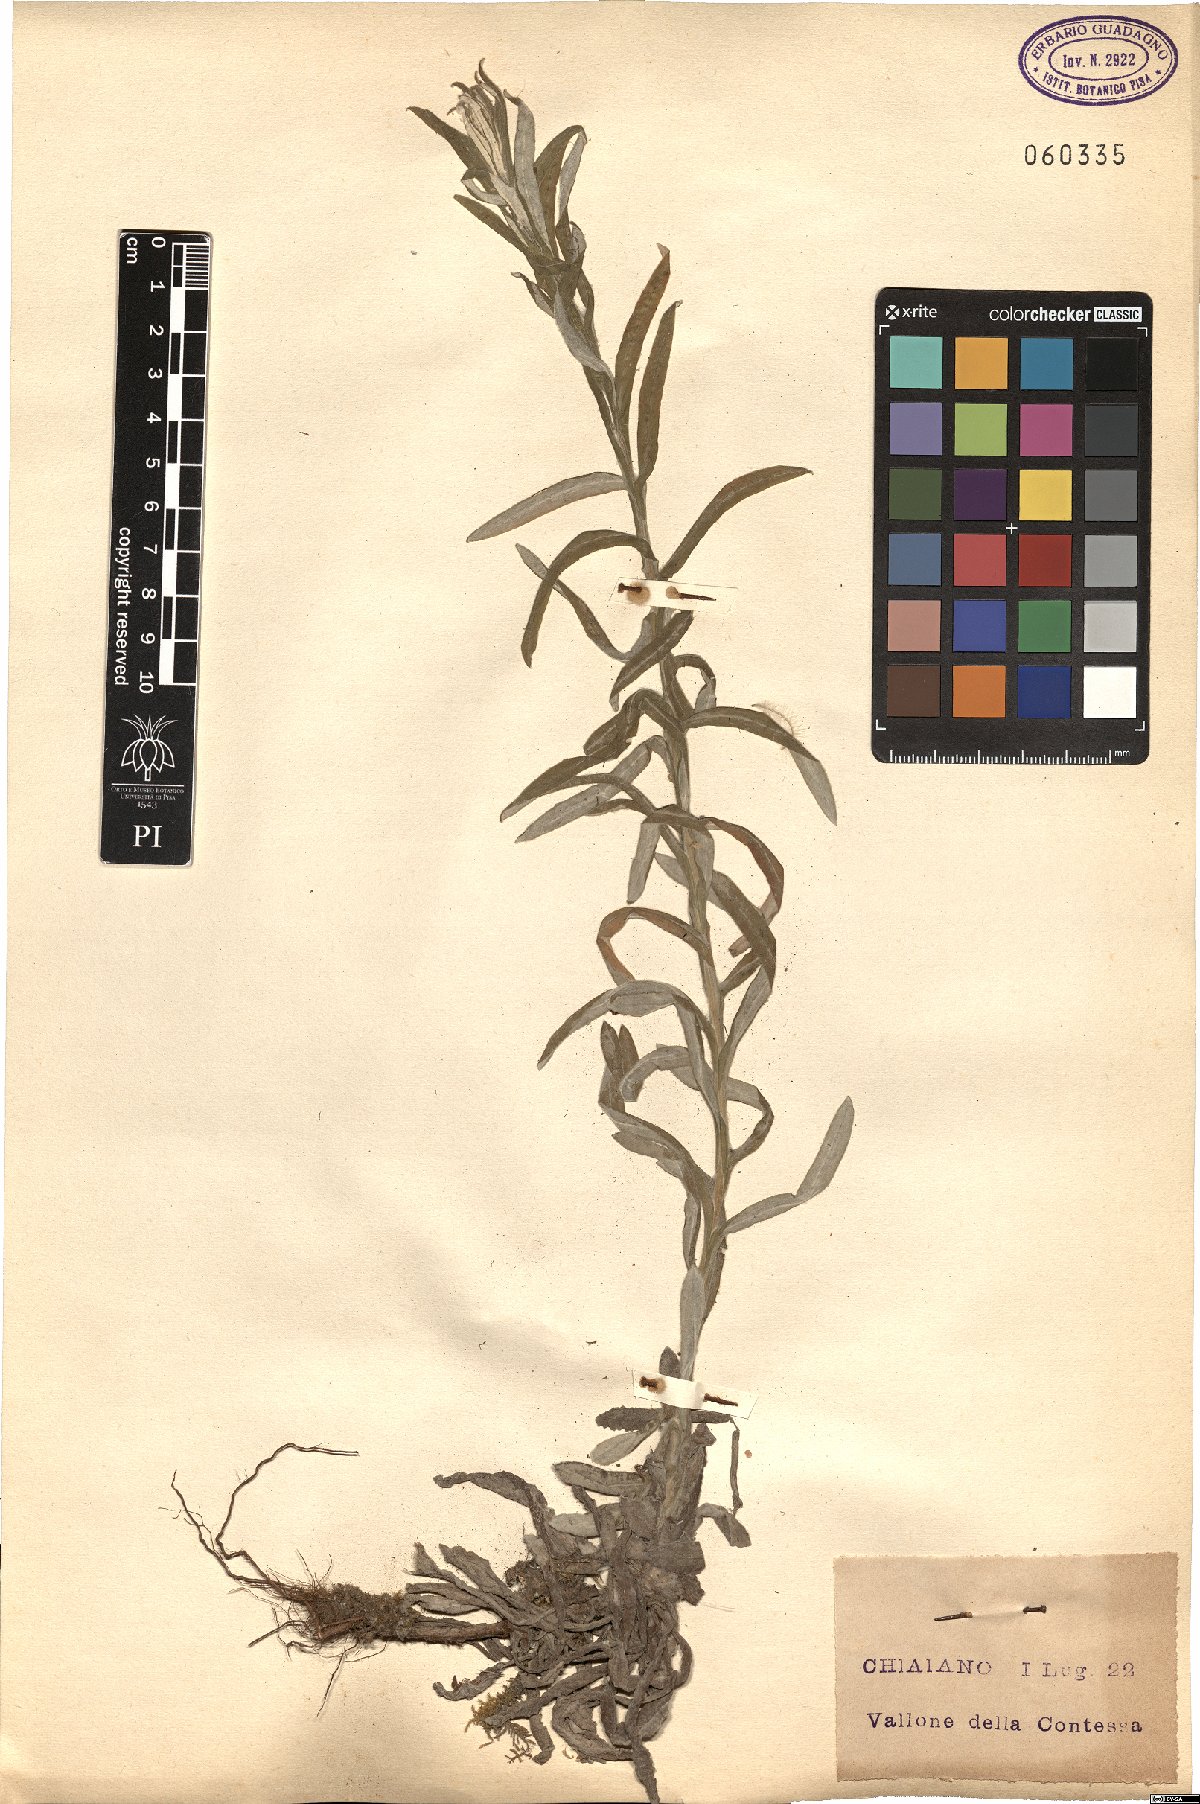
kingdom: Plantae
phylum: Tracheophyta
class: Magnoliopsida
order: Asterales
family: Asteraceae
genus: Helichrysum
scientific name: Helichrysum
